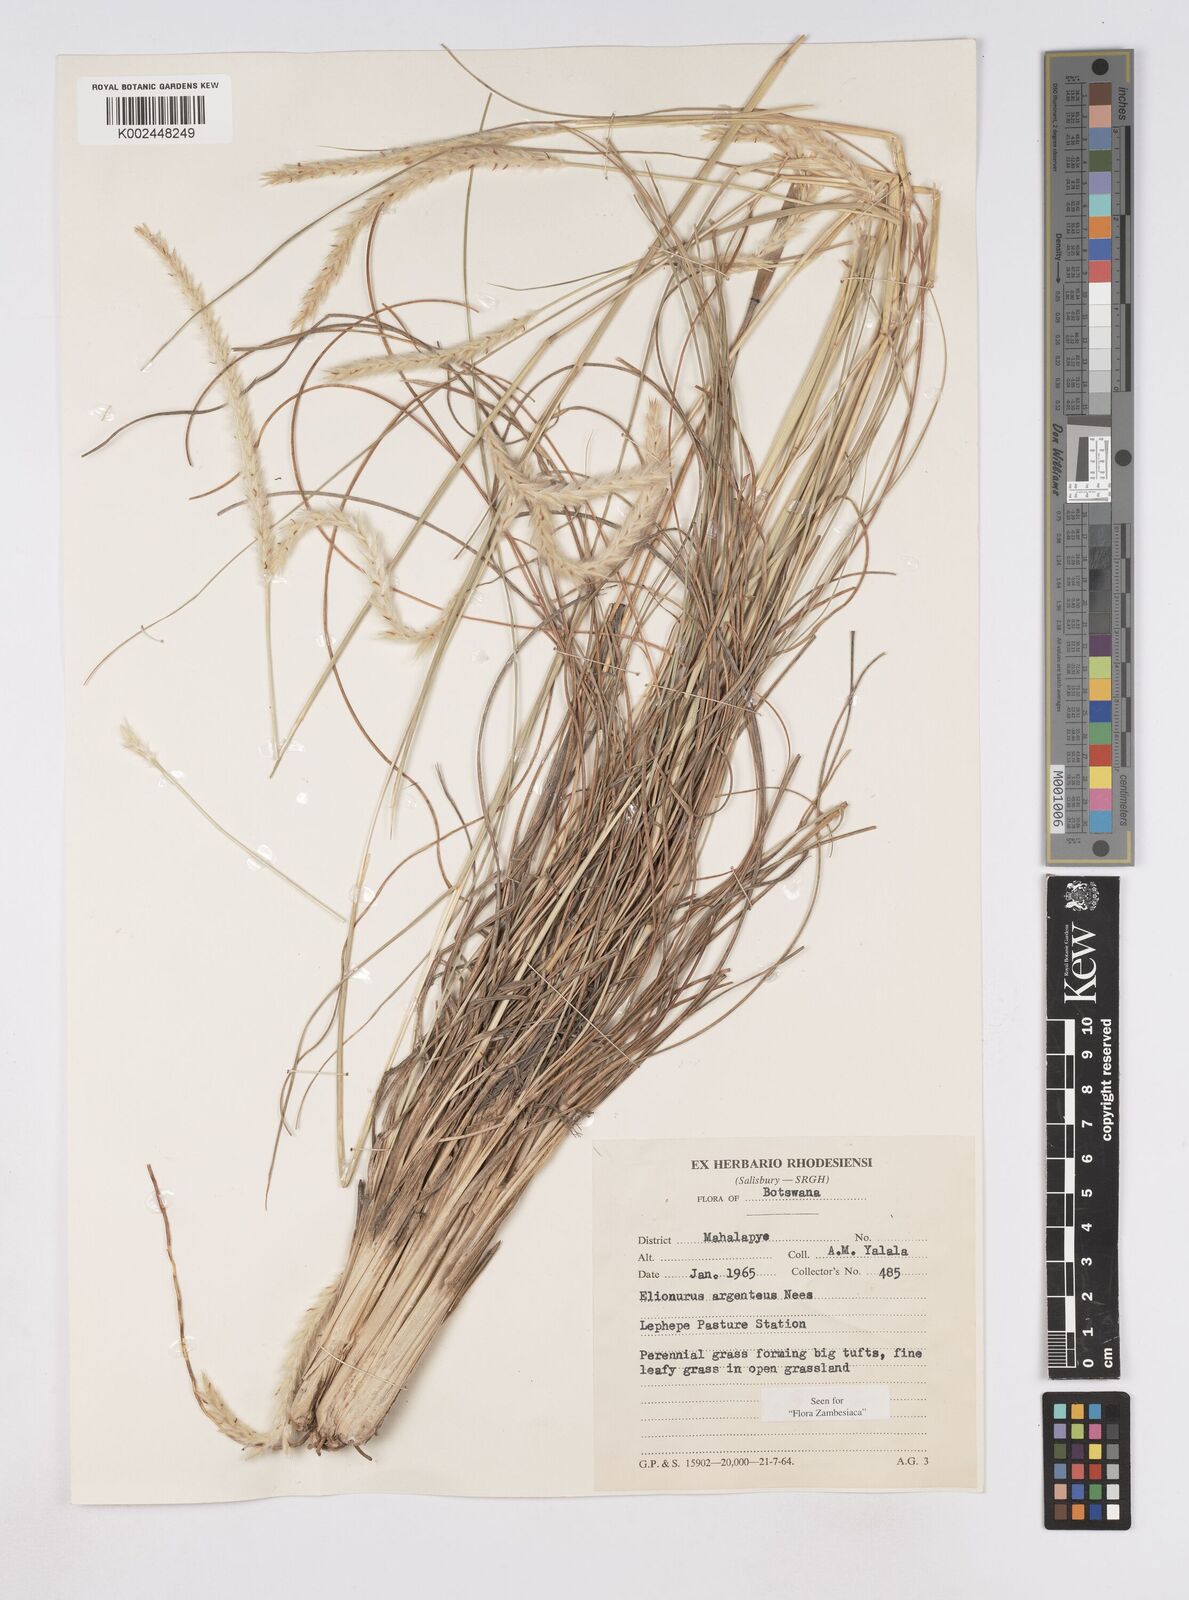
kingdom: Plantae
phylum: Tracheophyta
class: Liliopsida
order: Poales
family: Poaceae
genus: Elionurus
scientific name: Elionurus muticus
